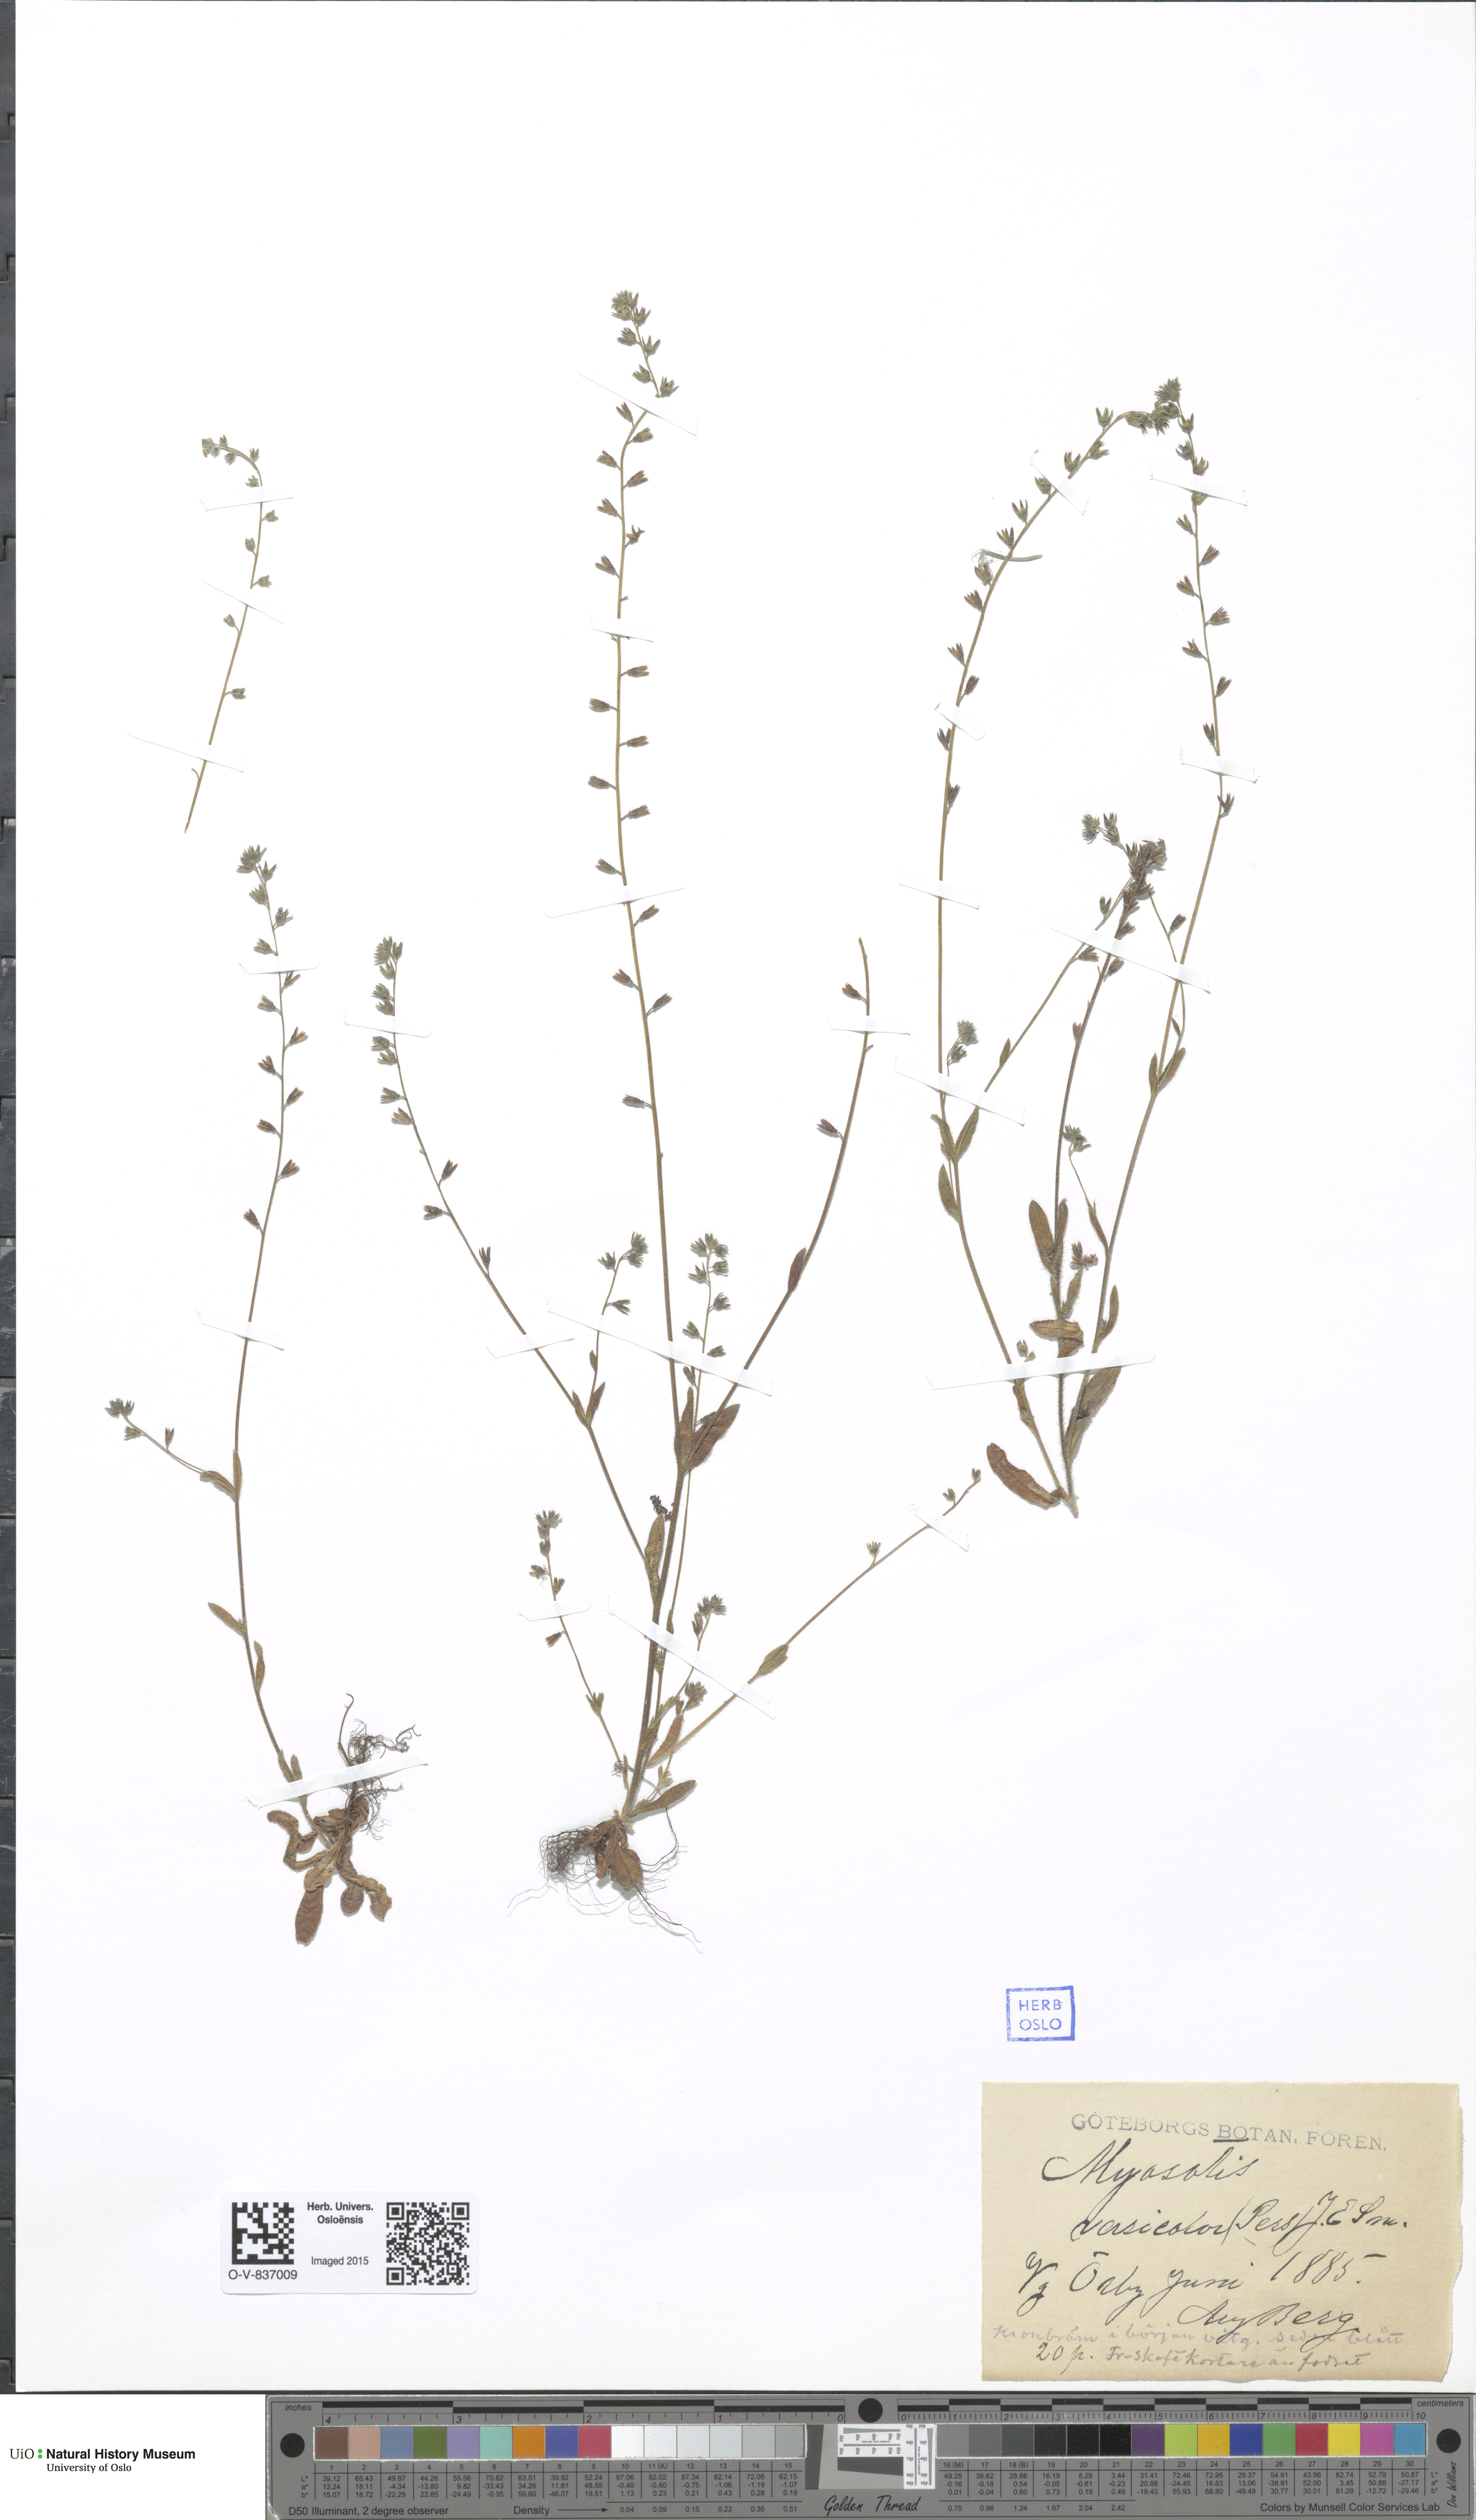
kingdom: Plantae
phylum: Tracheophyta
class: Magnoliopsida
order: Boraginales
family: Boraginaceae
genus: Myosotis
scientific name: Myosotis discolor
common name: Changing forget-me-not
